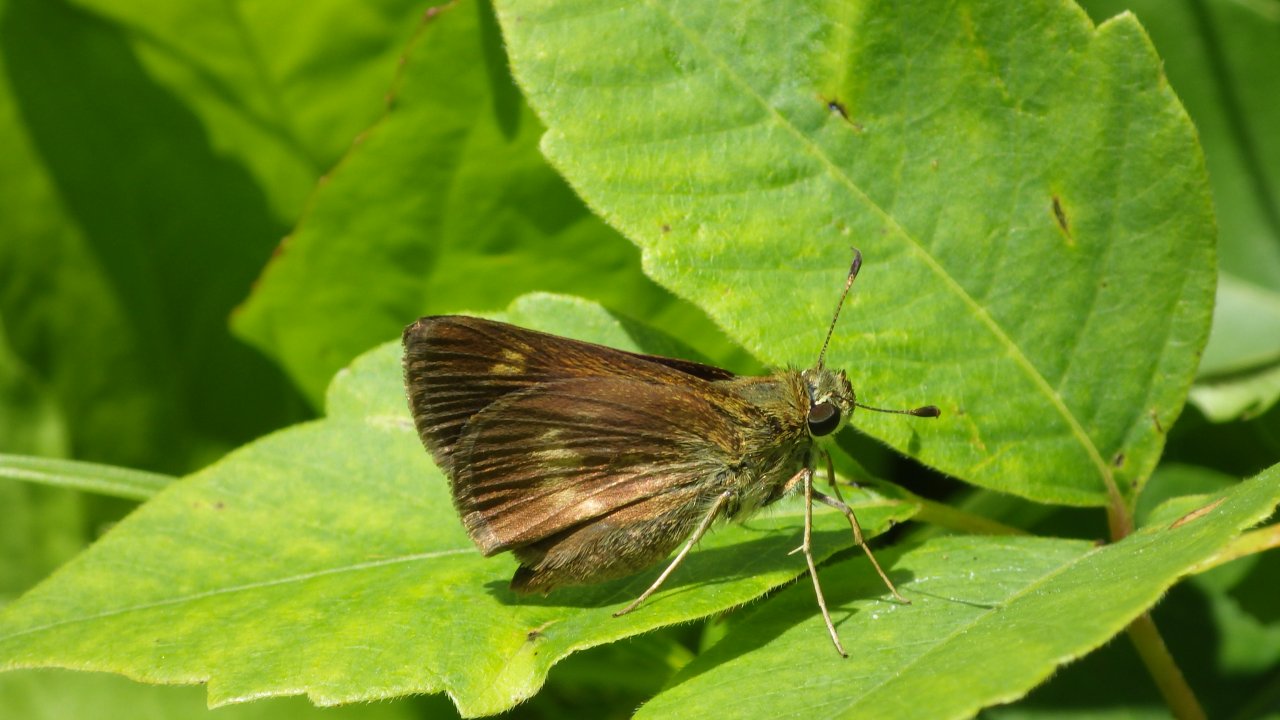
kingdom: Animalia
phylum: Arthropoda
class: Insecta
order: Lepidoptera
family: Hesperiidae
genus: Polites
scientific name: Polites egeremet
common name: Northern Broken-Dash
